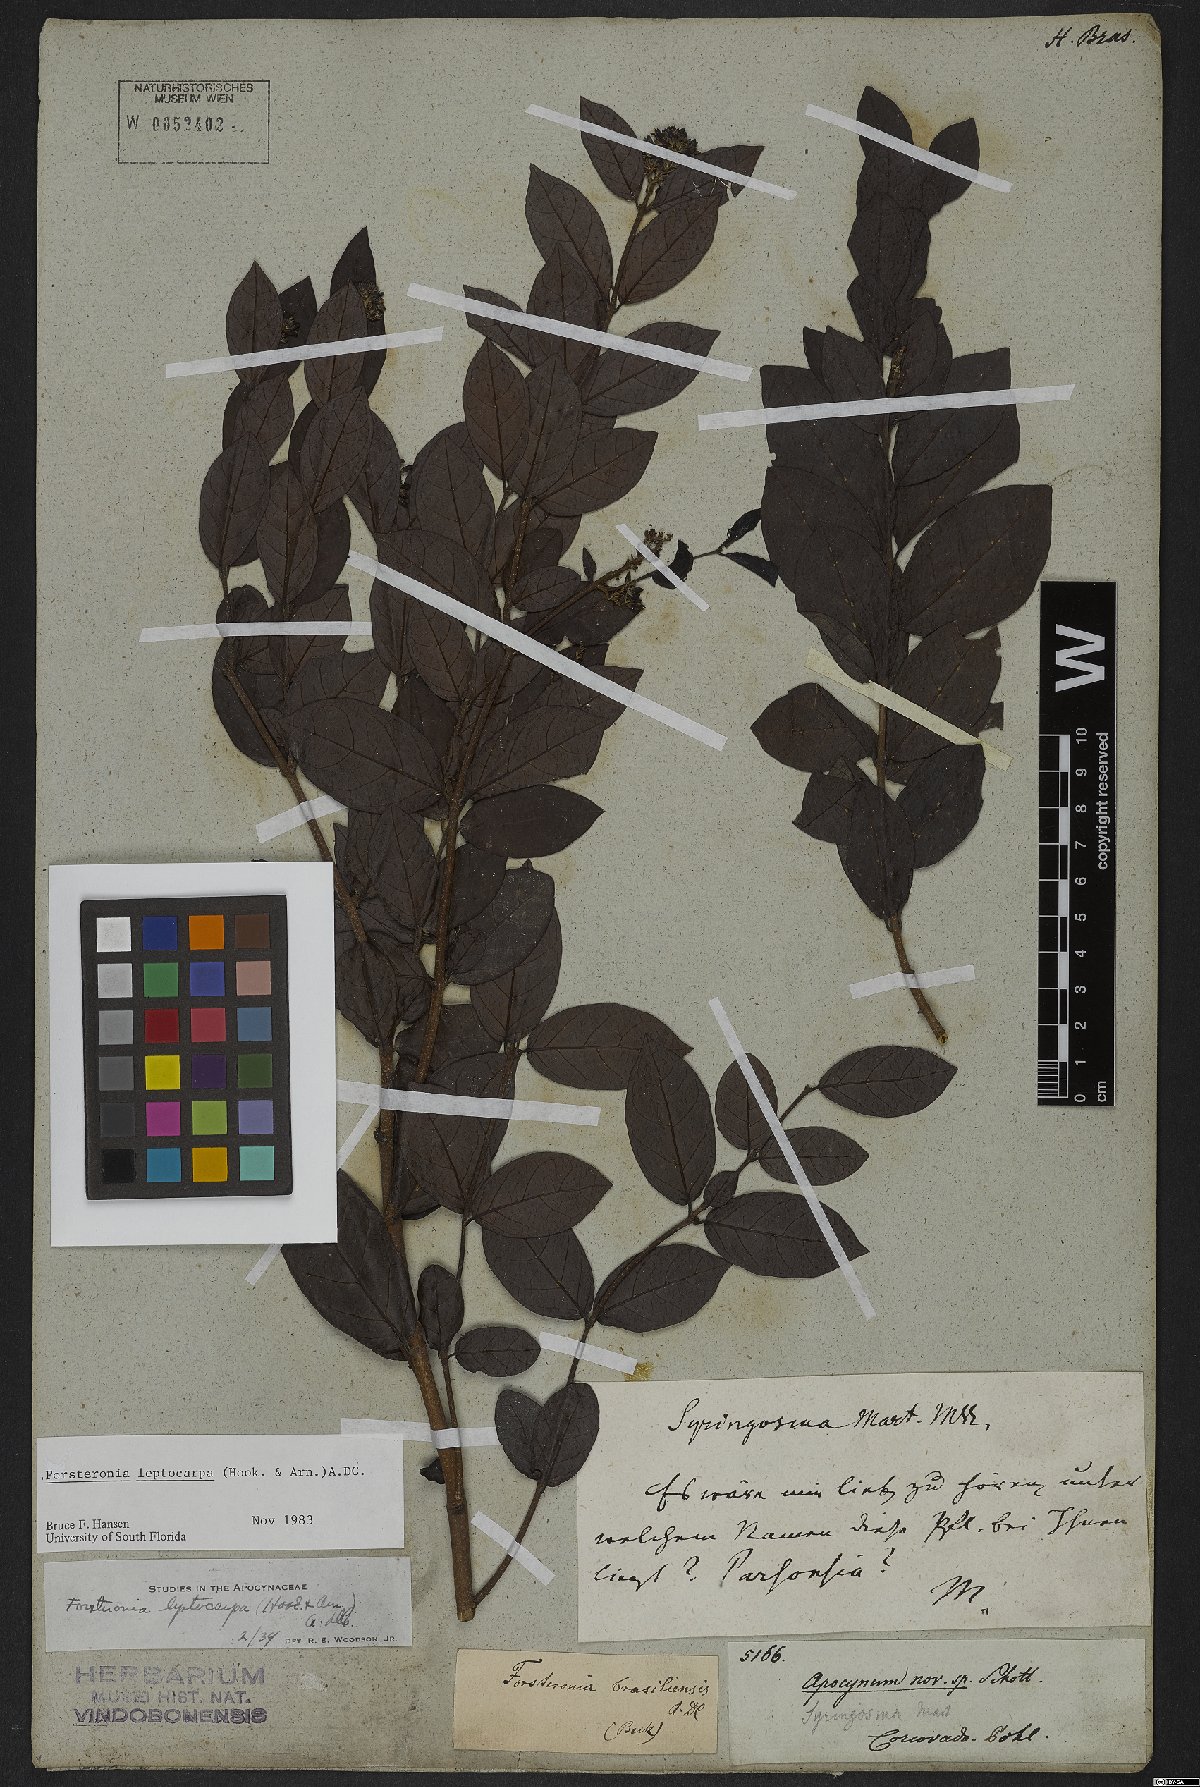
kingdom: Plantae
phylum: Tracheophyta
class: Magnoliopsida
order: Gentianales
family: Apocynaceae
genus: Forsteronia
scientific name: Forsteronia leptocarpa
